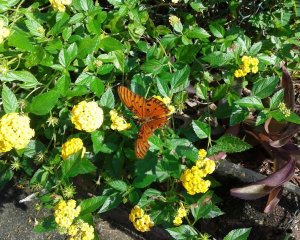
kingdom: Animalia
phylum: Arthropoda
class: Insecta
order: Lepidoptera
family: Nymphalidae
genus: Dione
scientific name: Dione vanillae
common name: Gulf Fritillary
